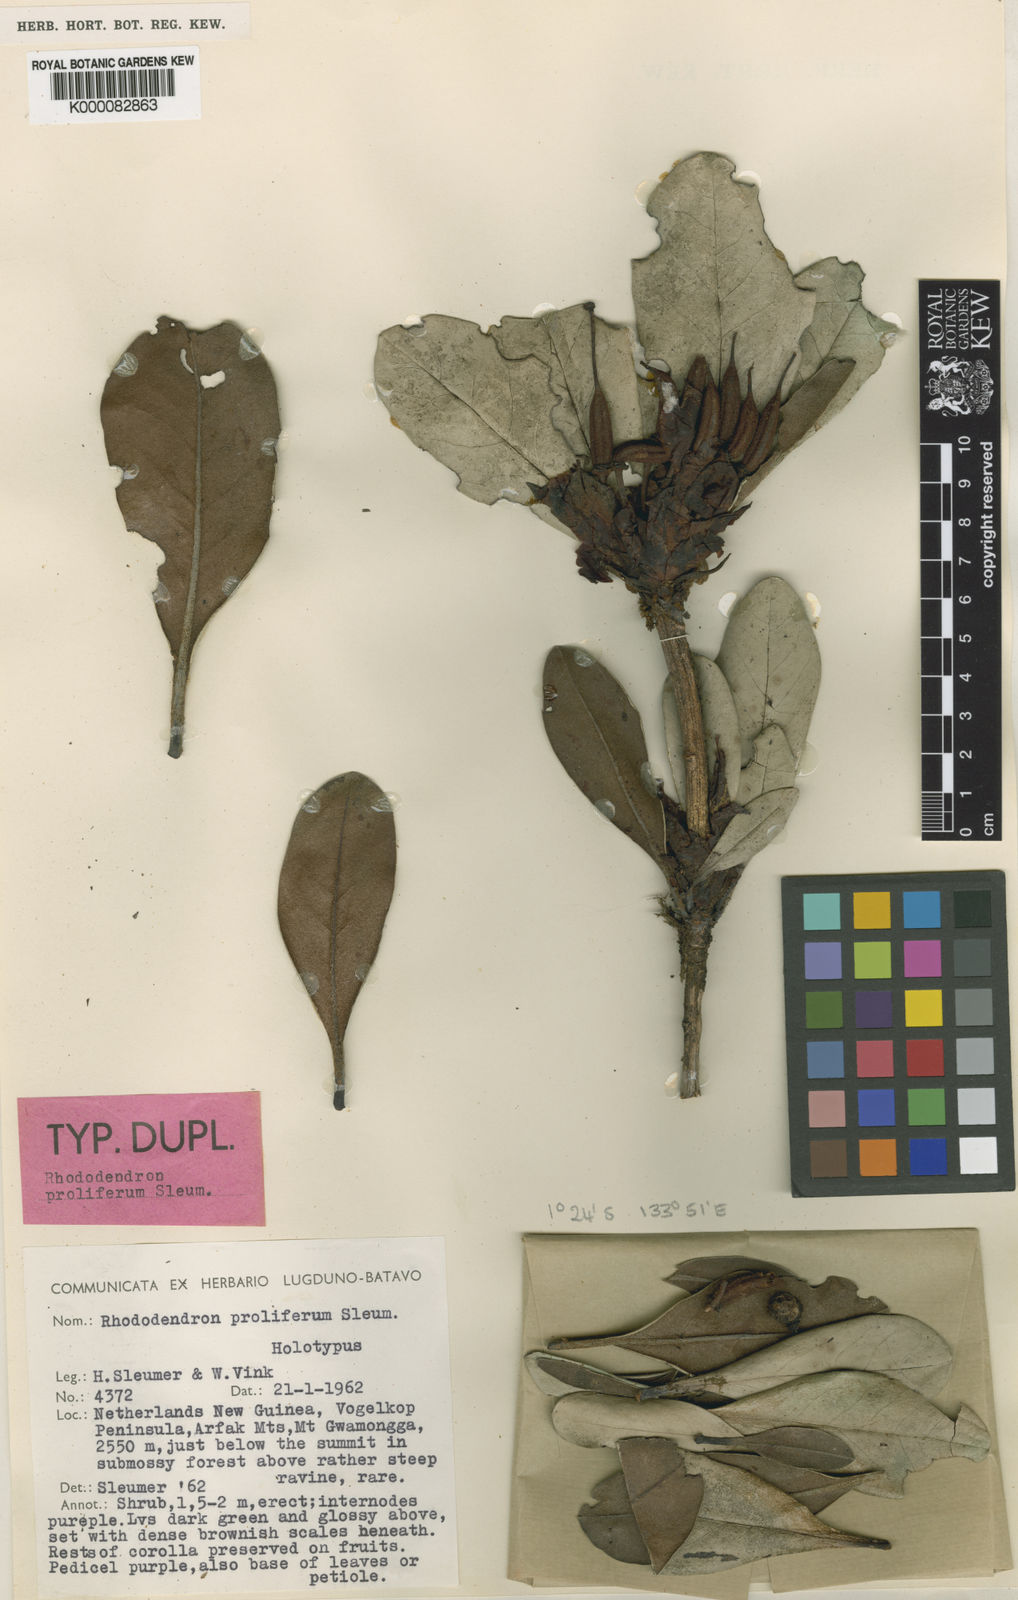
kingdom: Plantae
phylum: Tracheophyta
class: Magnoliopsida
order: Ericales
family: Ericaceae
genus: Rhododendron
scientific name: Rhododendron proliferum
